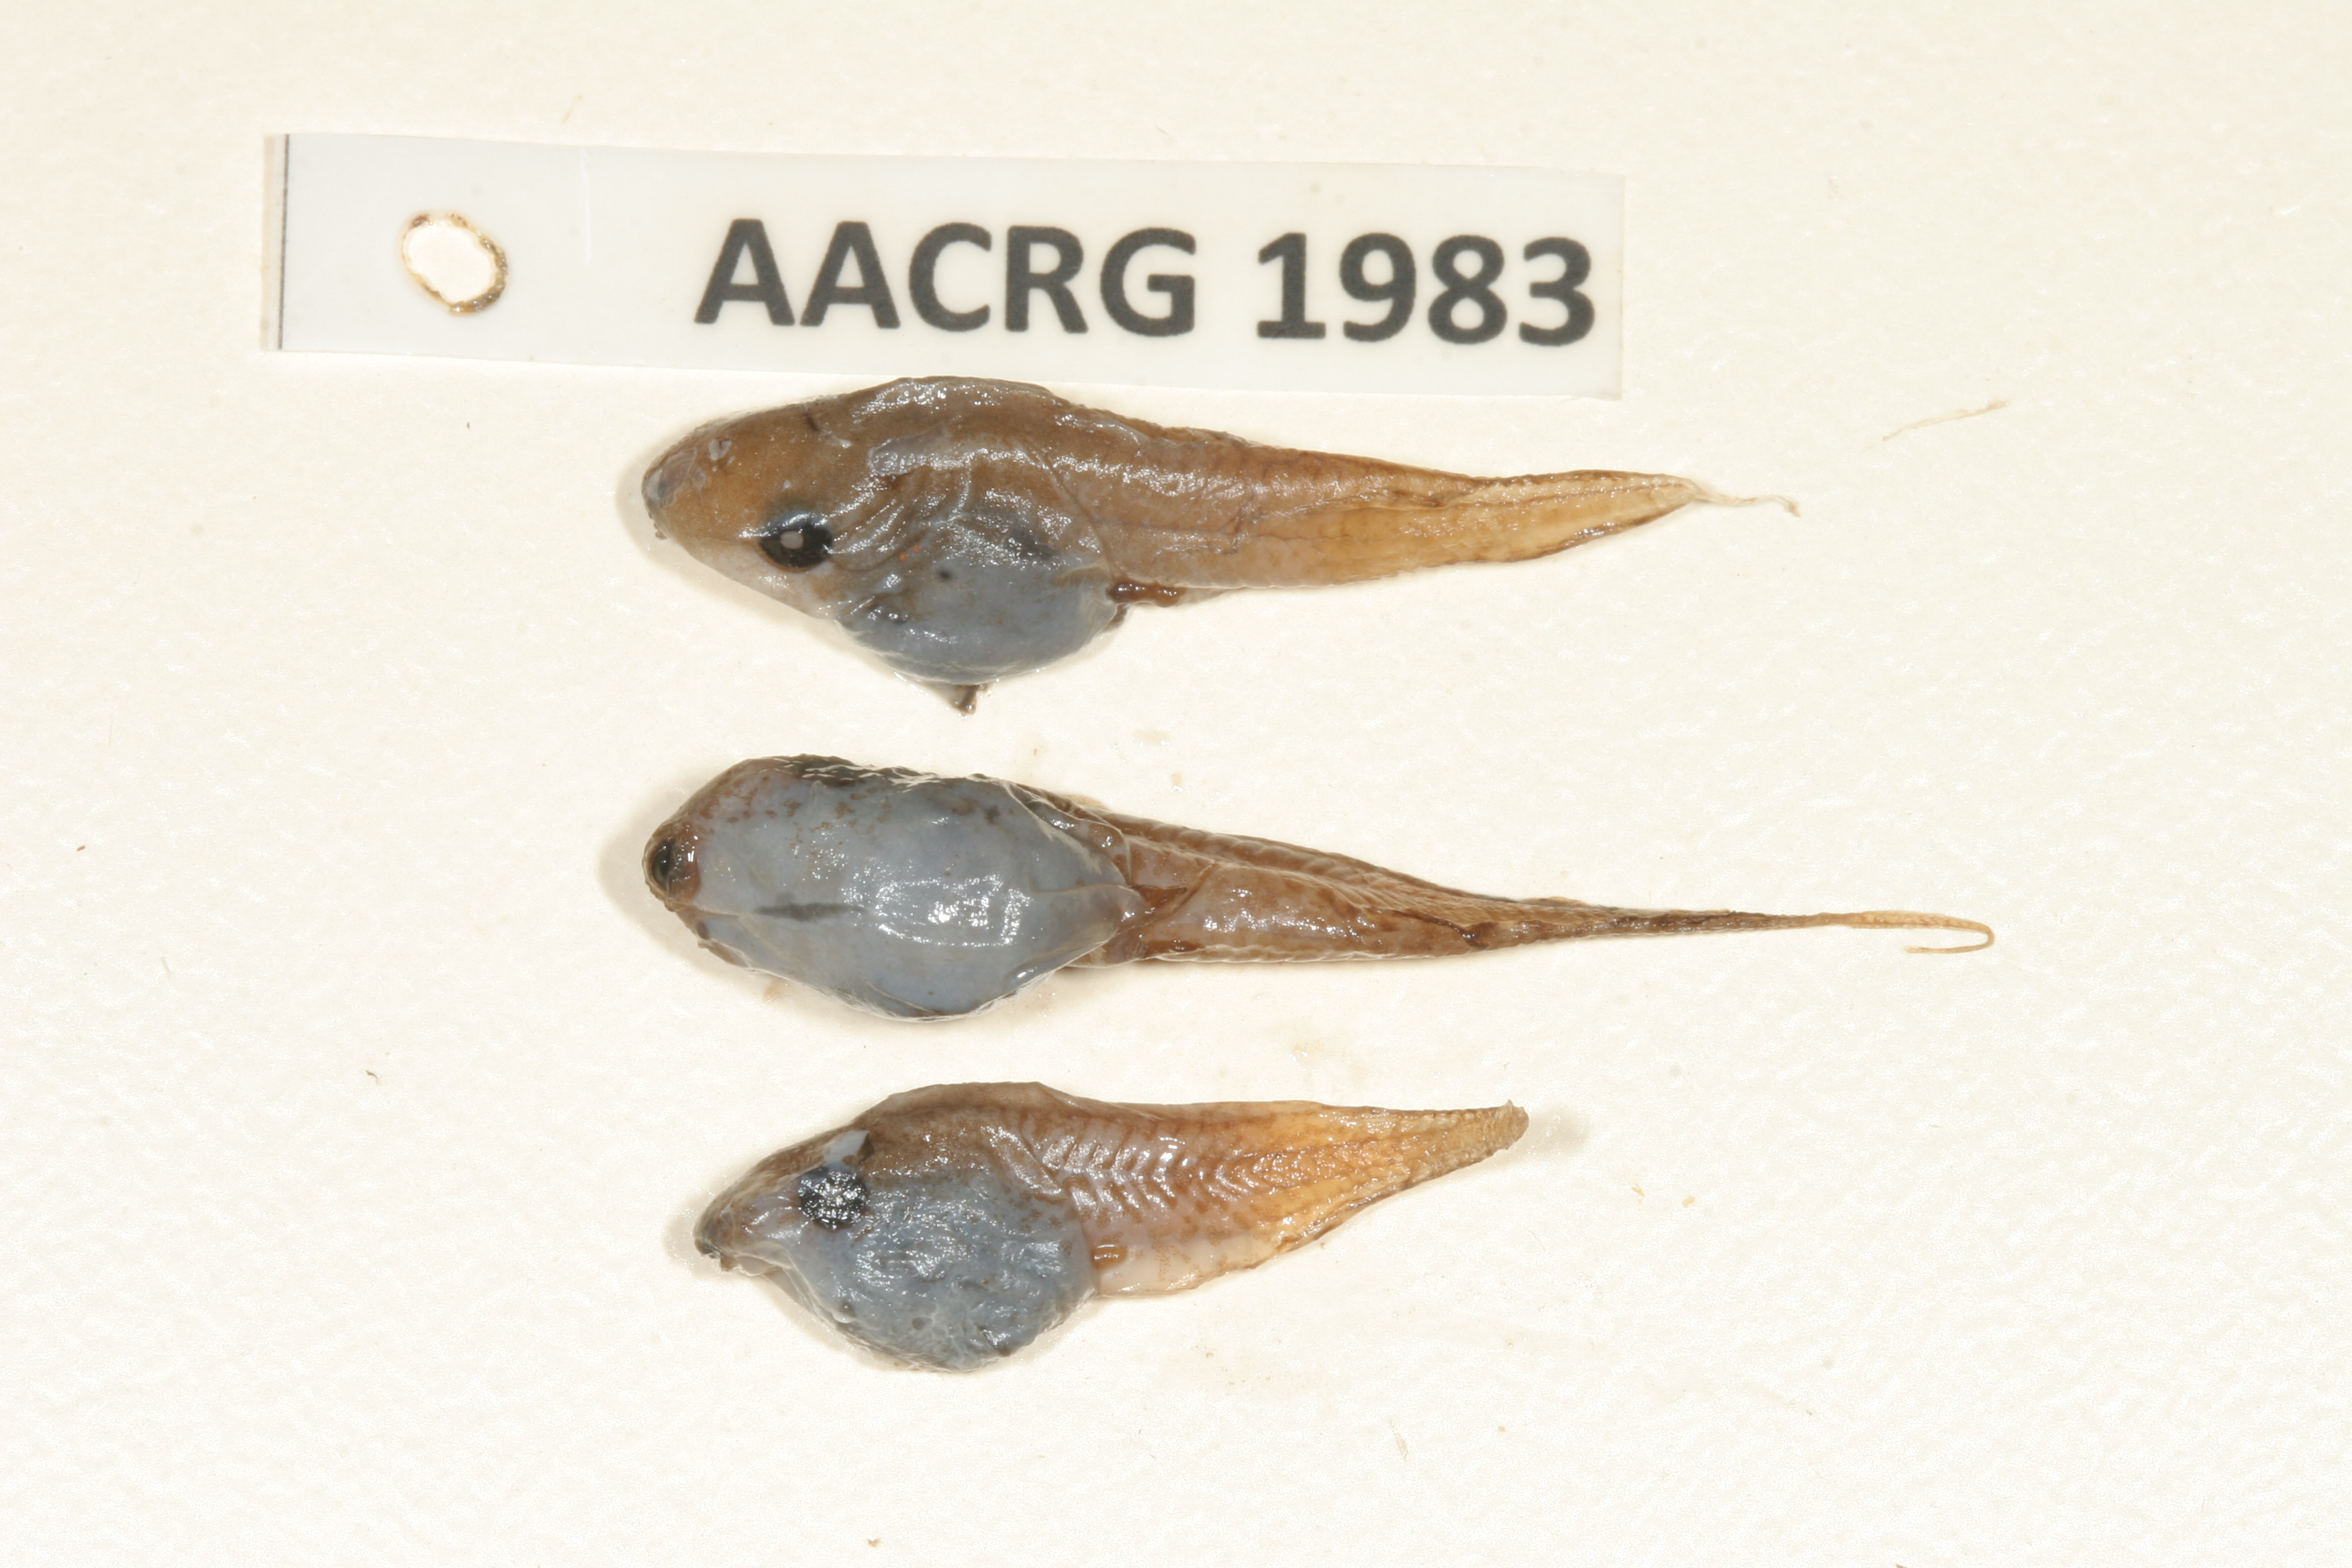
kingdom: Animalia
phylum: Chordata
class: Amphibia
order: Anura
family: Hyperoliidae
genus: Kassina
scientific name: Kassina senegalensis
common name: Senegal land frog
